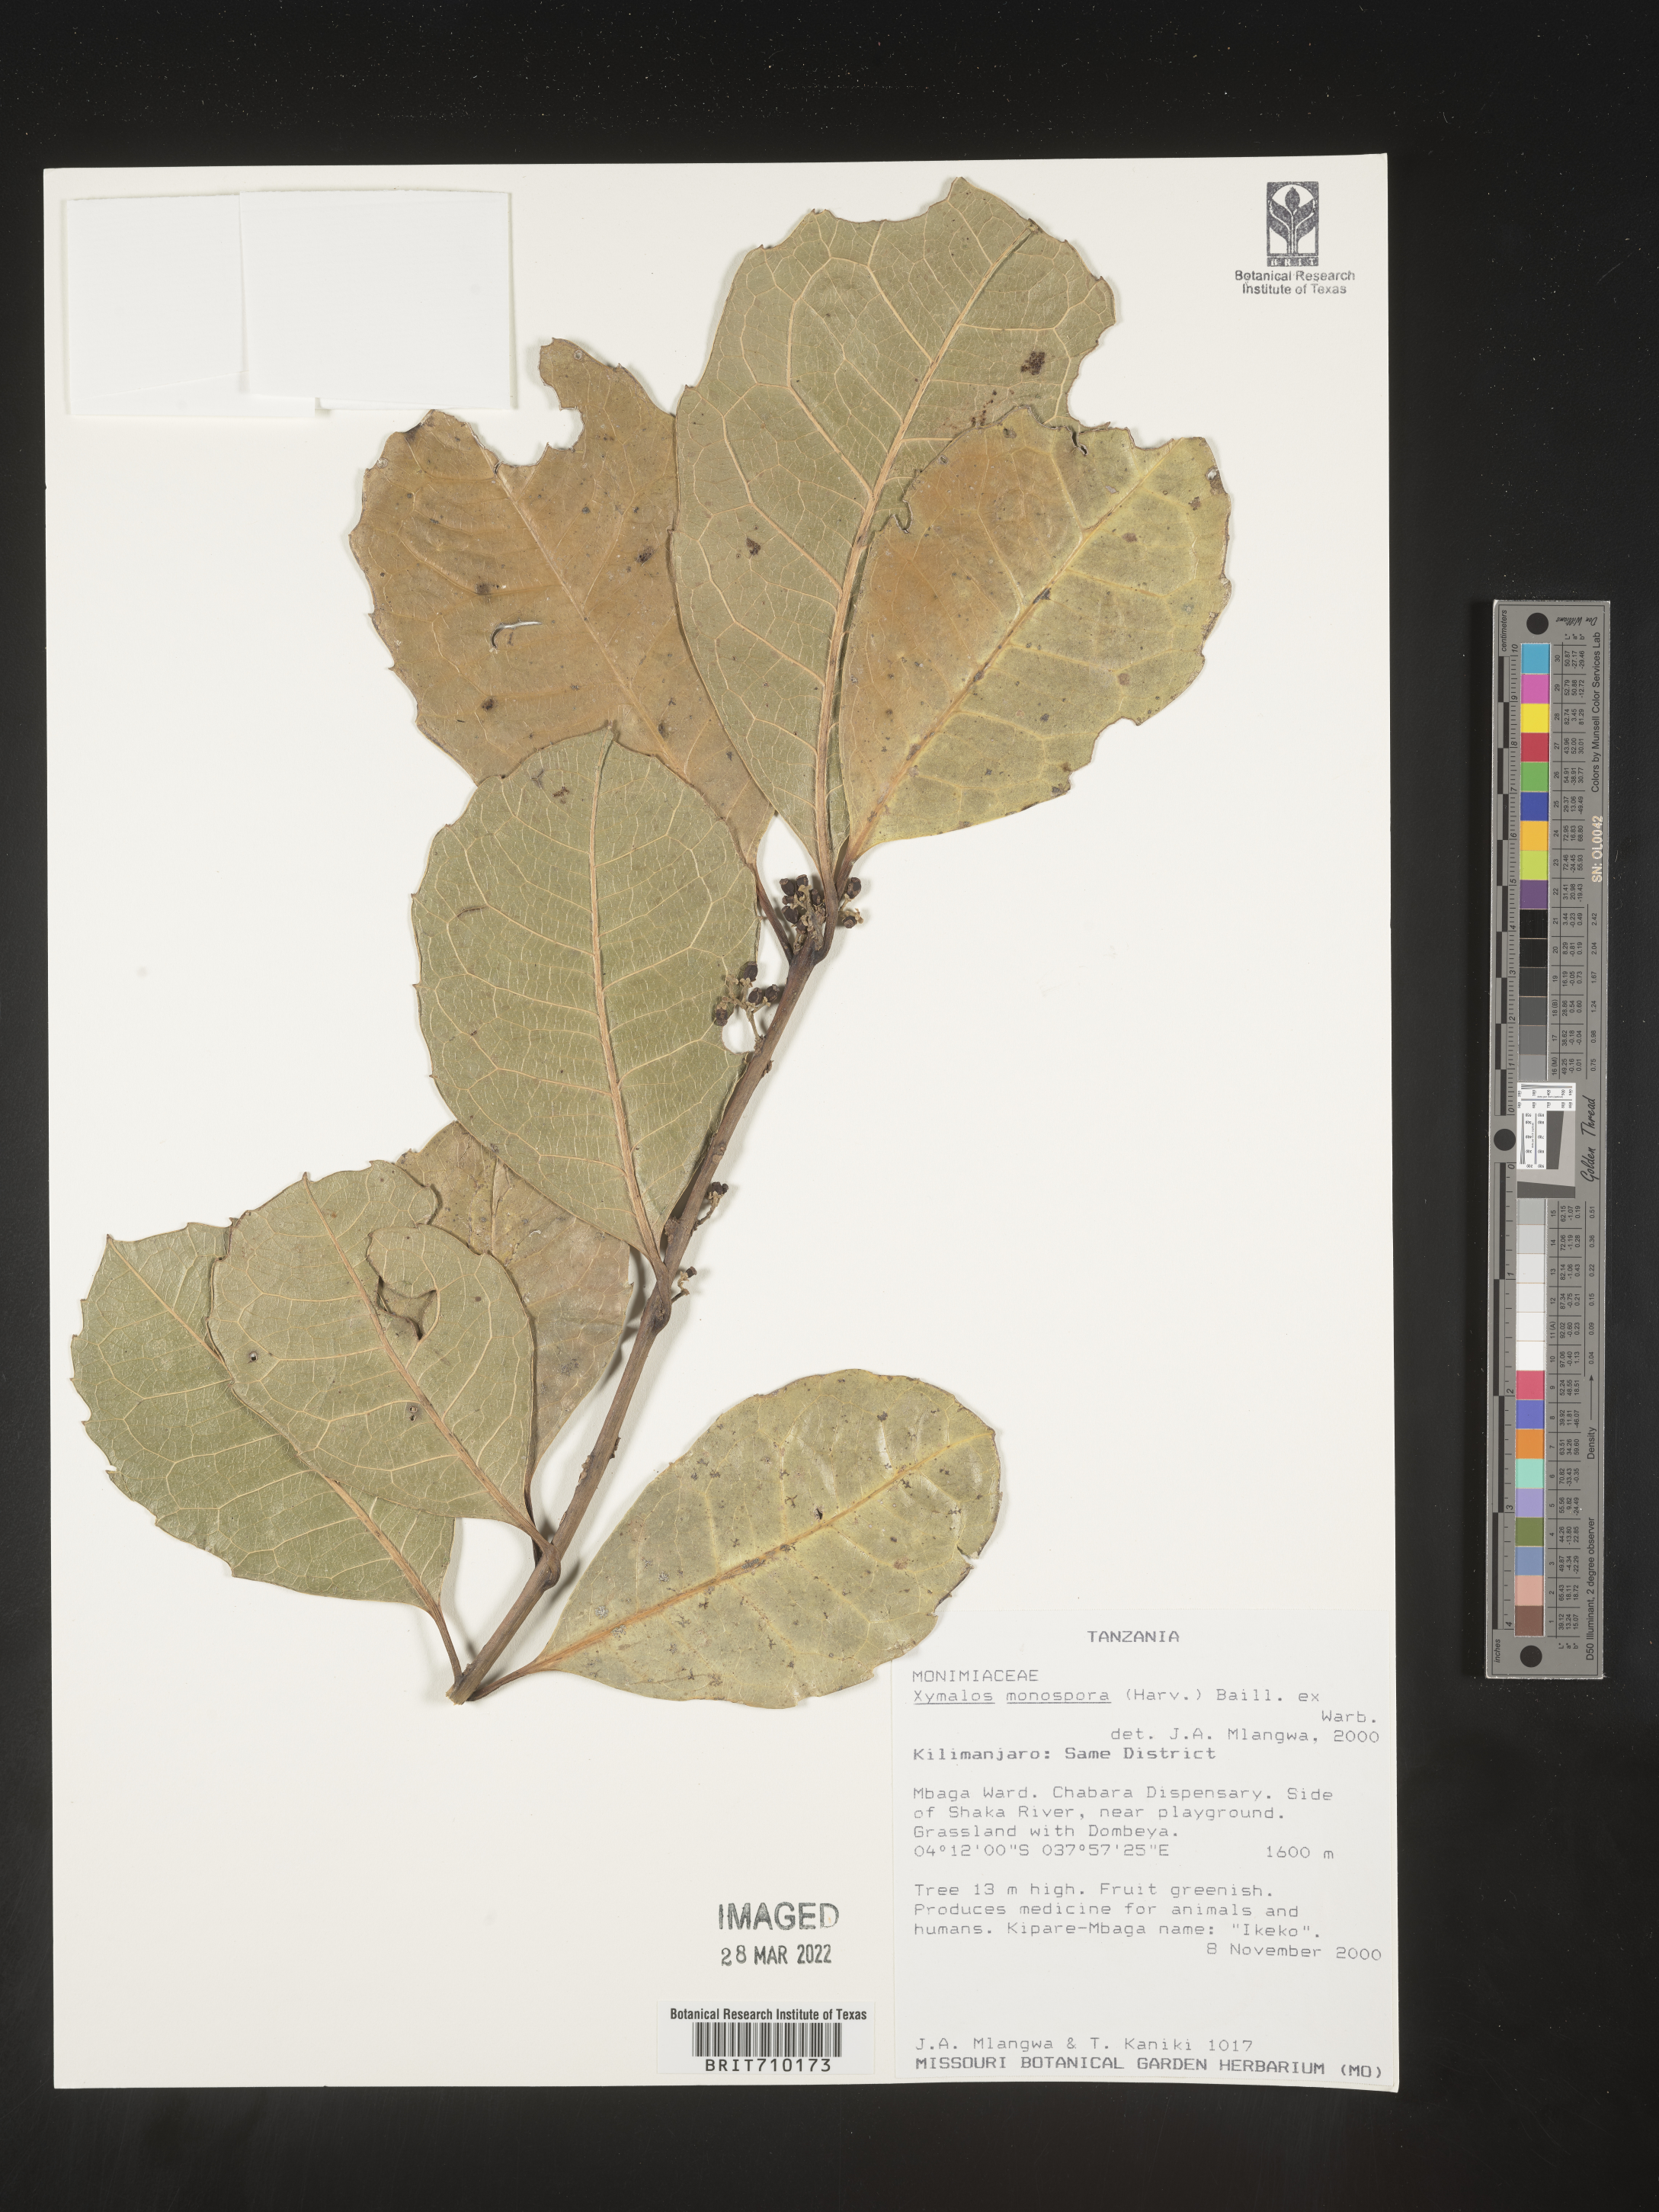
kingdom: Plantae
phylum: Tracheophyta
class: Magnoliopsida
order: Laurales
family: Monimiaceae
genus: Xymalos
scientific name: Xymalos
